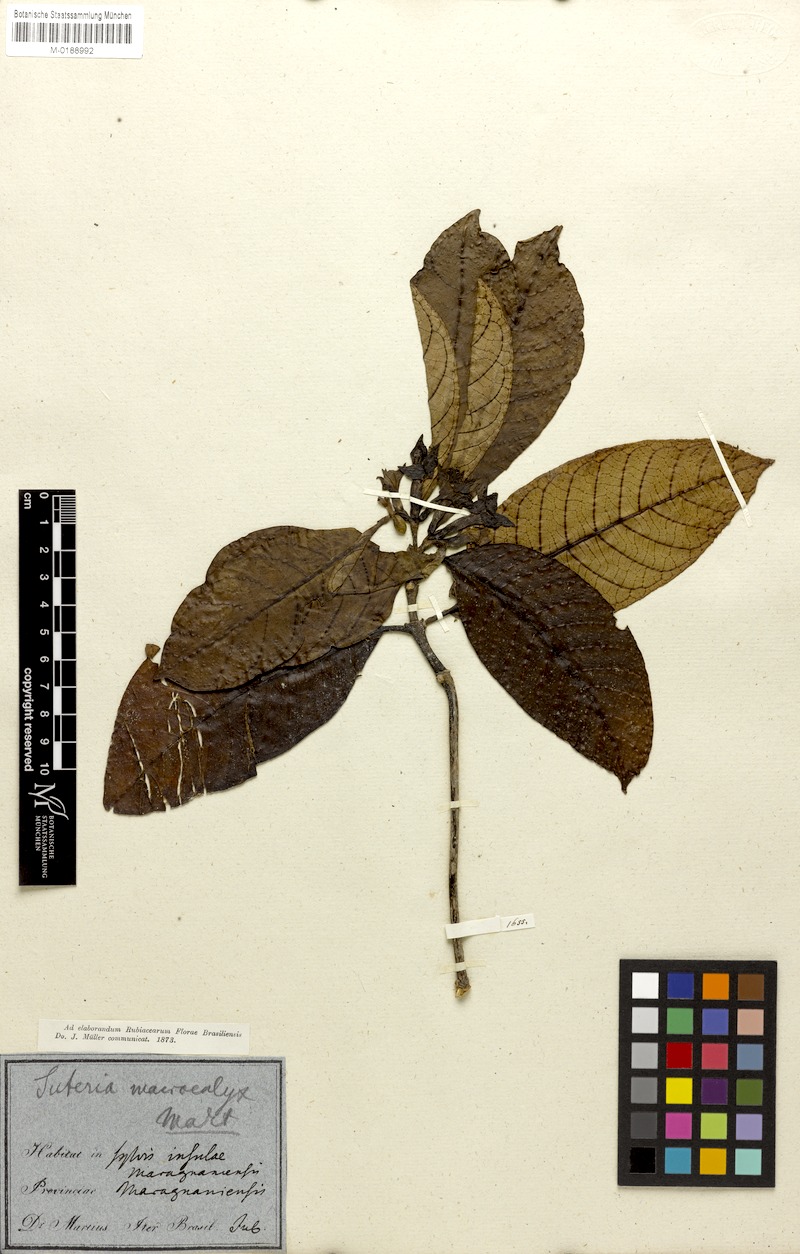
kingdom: Plantae
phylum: Tracheophyta
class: Magnoliopsida
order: Gentianales
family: Rubiaceae
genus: Psychotria
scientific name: Psychotria megalocalyx
